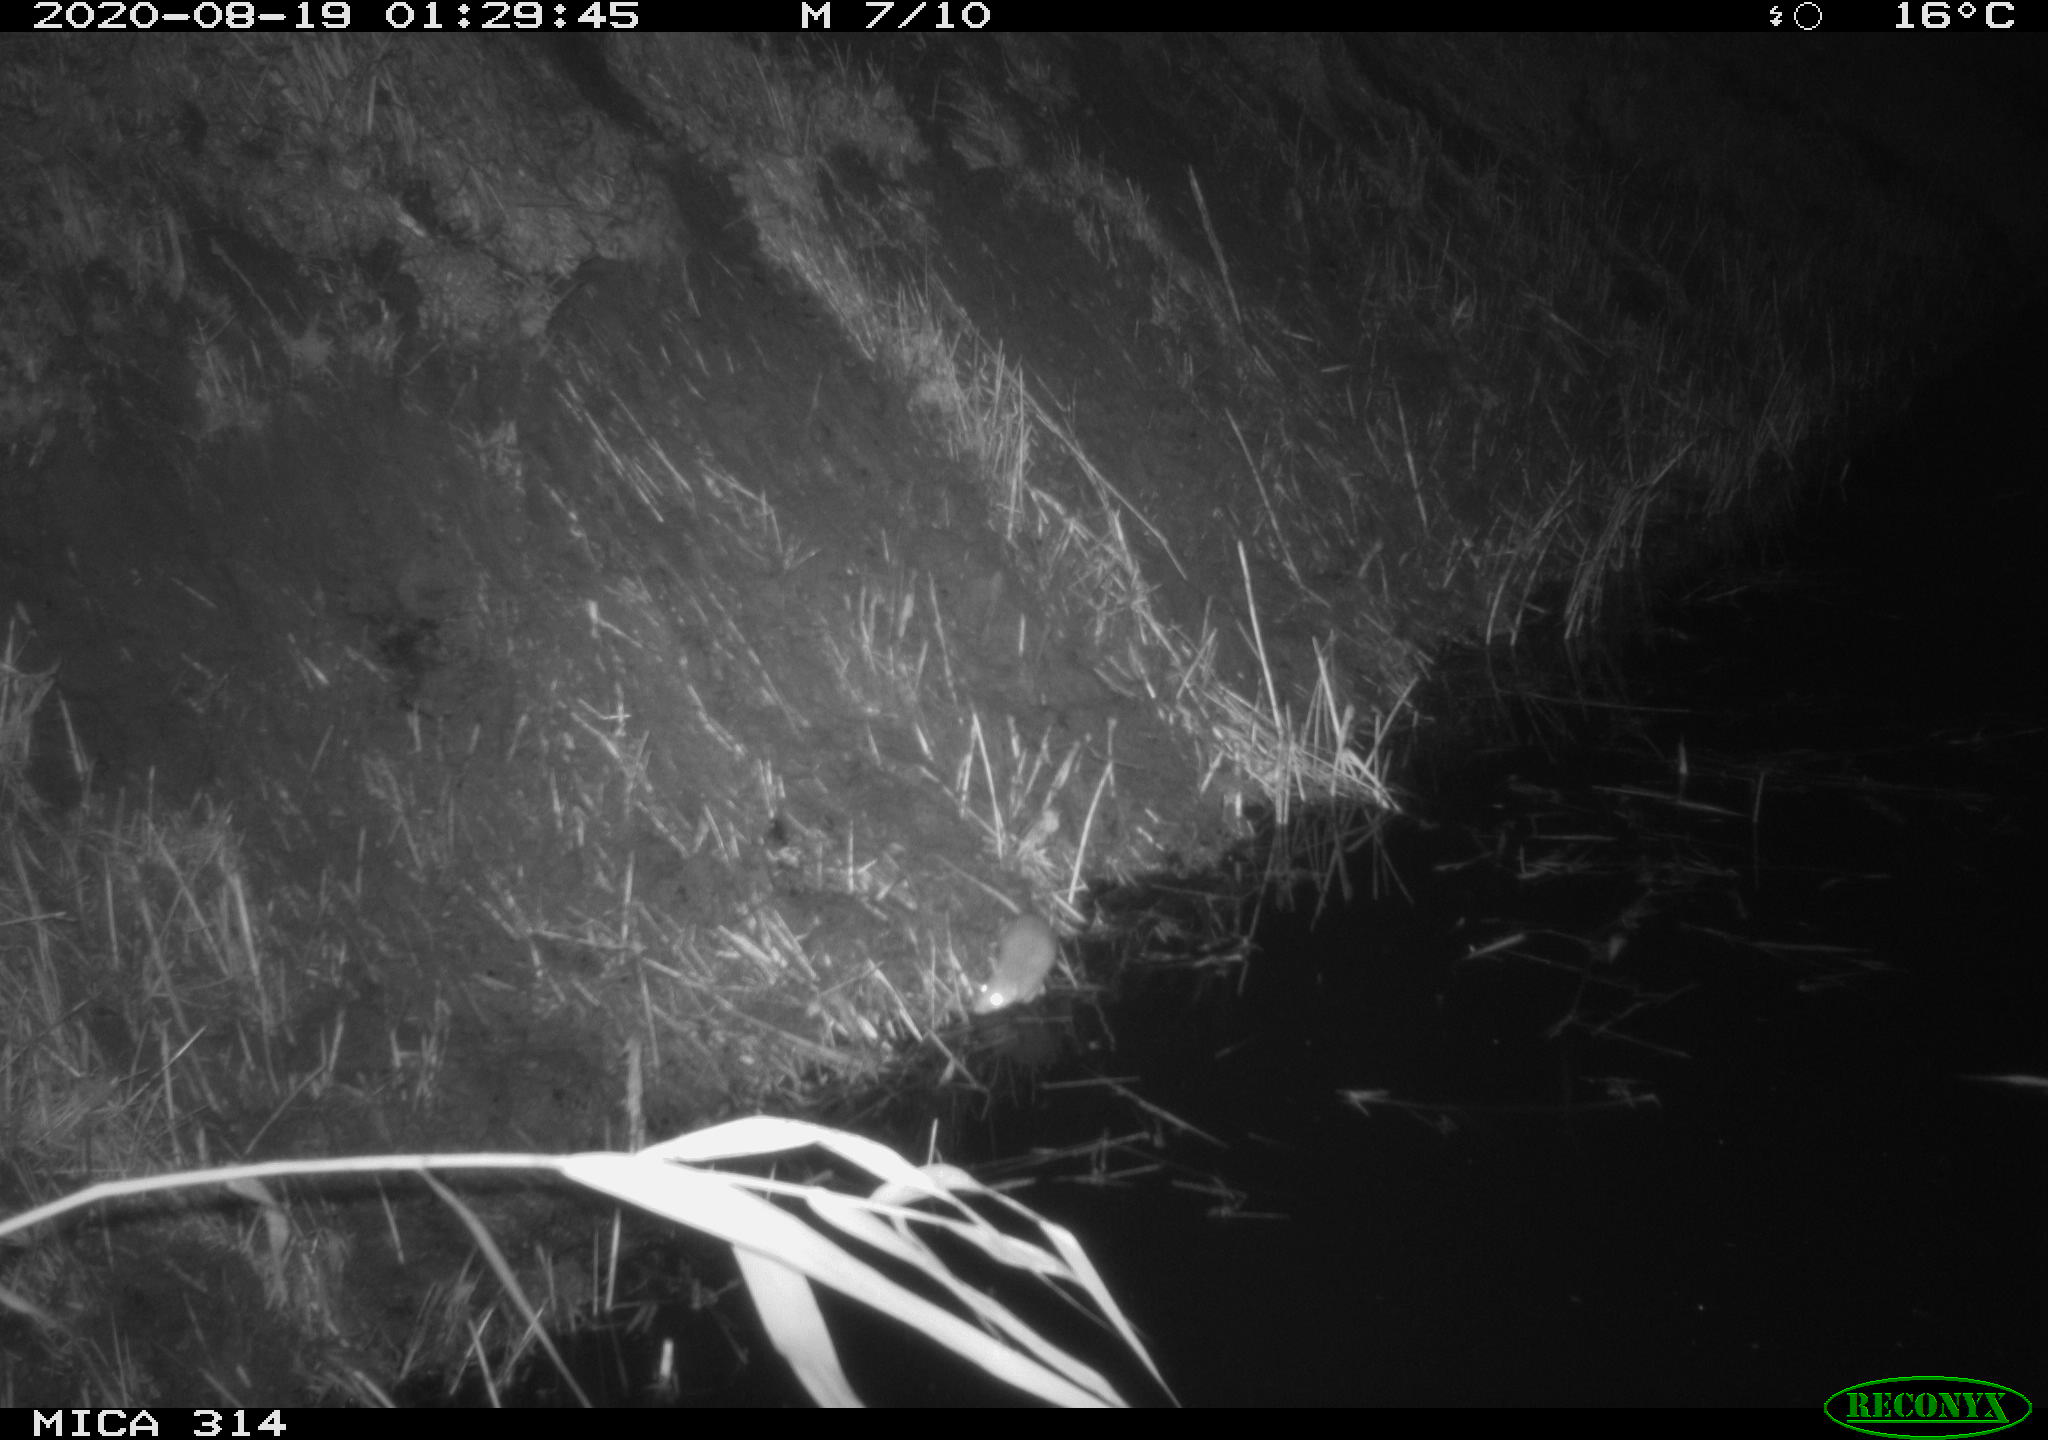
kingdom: Animalia
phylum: Chordata
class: Mammalia
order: Rodentia
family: Muridae
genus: Rattus
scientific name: Rattus norvegicus
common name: Brown rat
